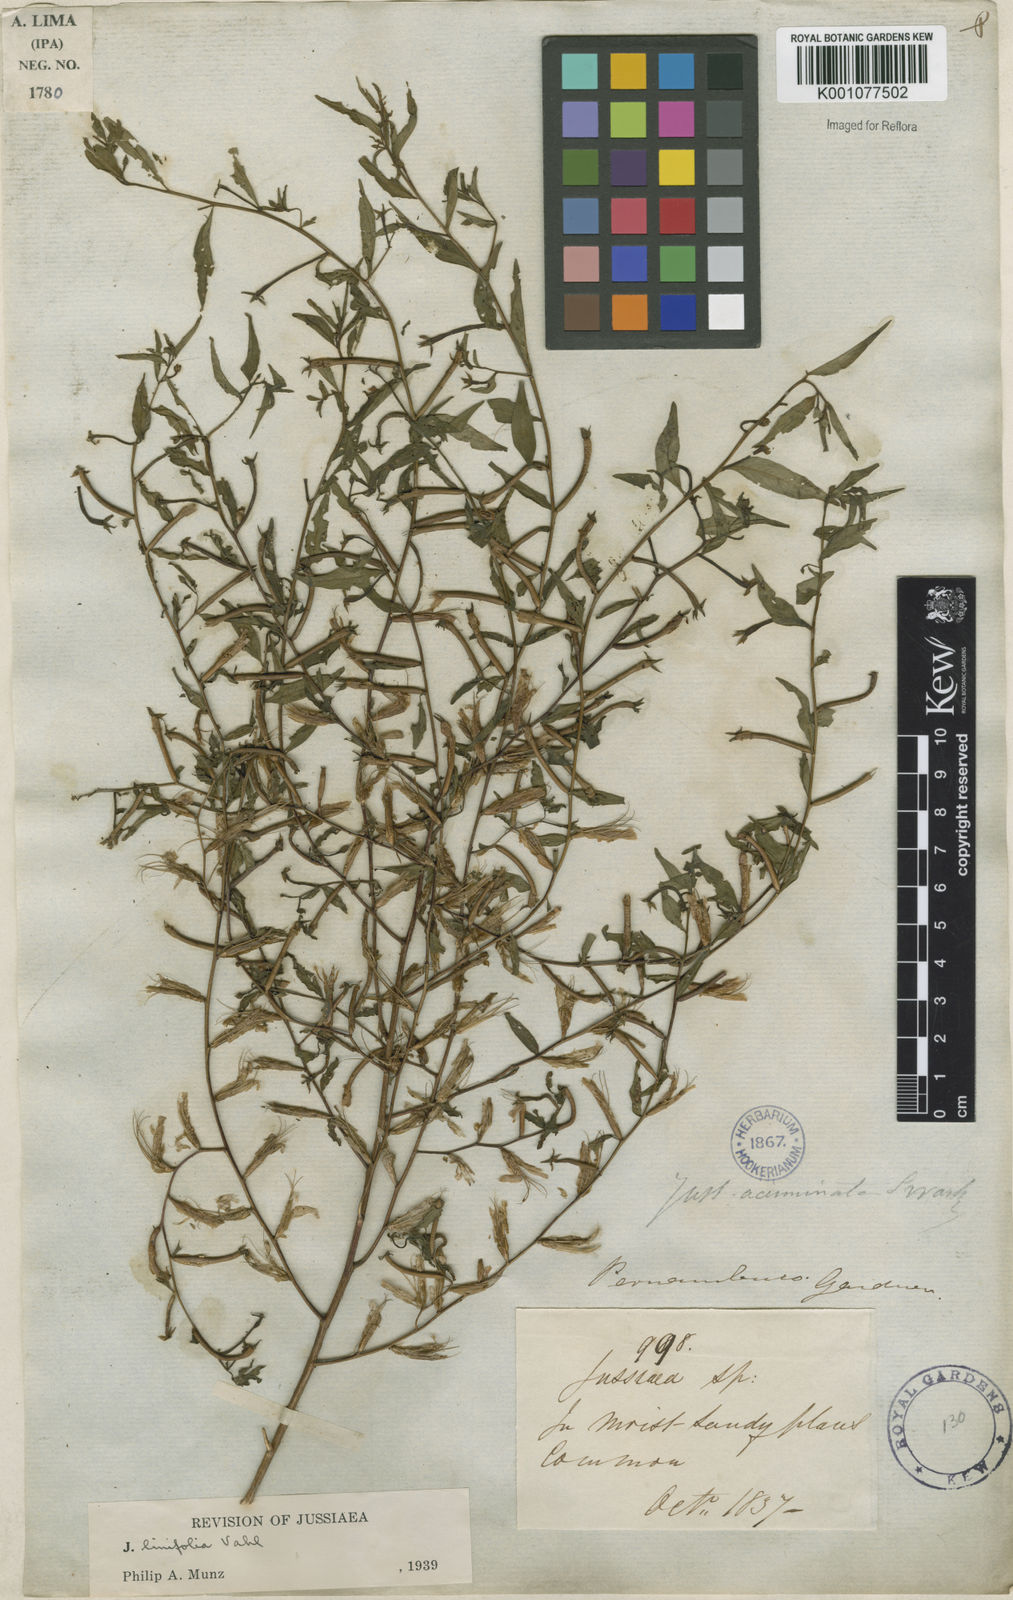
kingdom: Plantae
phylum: Tracheophyta
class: Magnoliopsida
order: Myrtales
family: Onagraceae
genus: Ludwigia
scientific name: Ludwigia hyssopifolia
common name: Linear leaf water primrose
